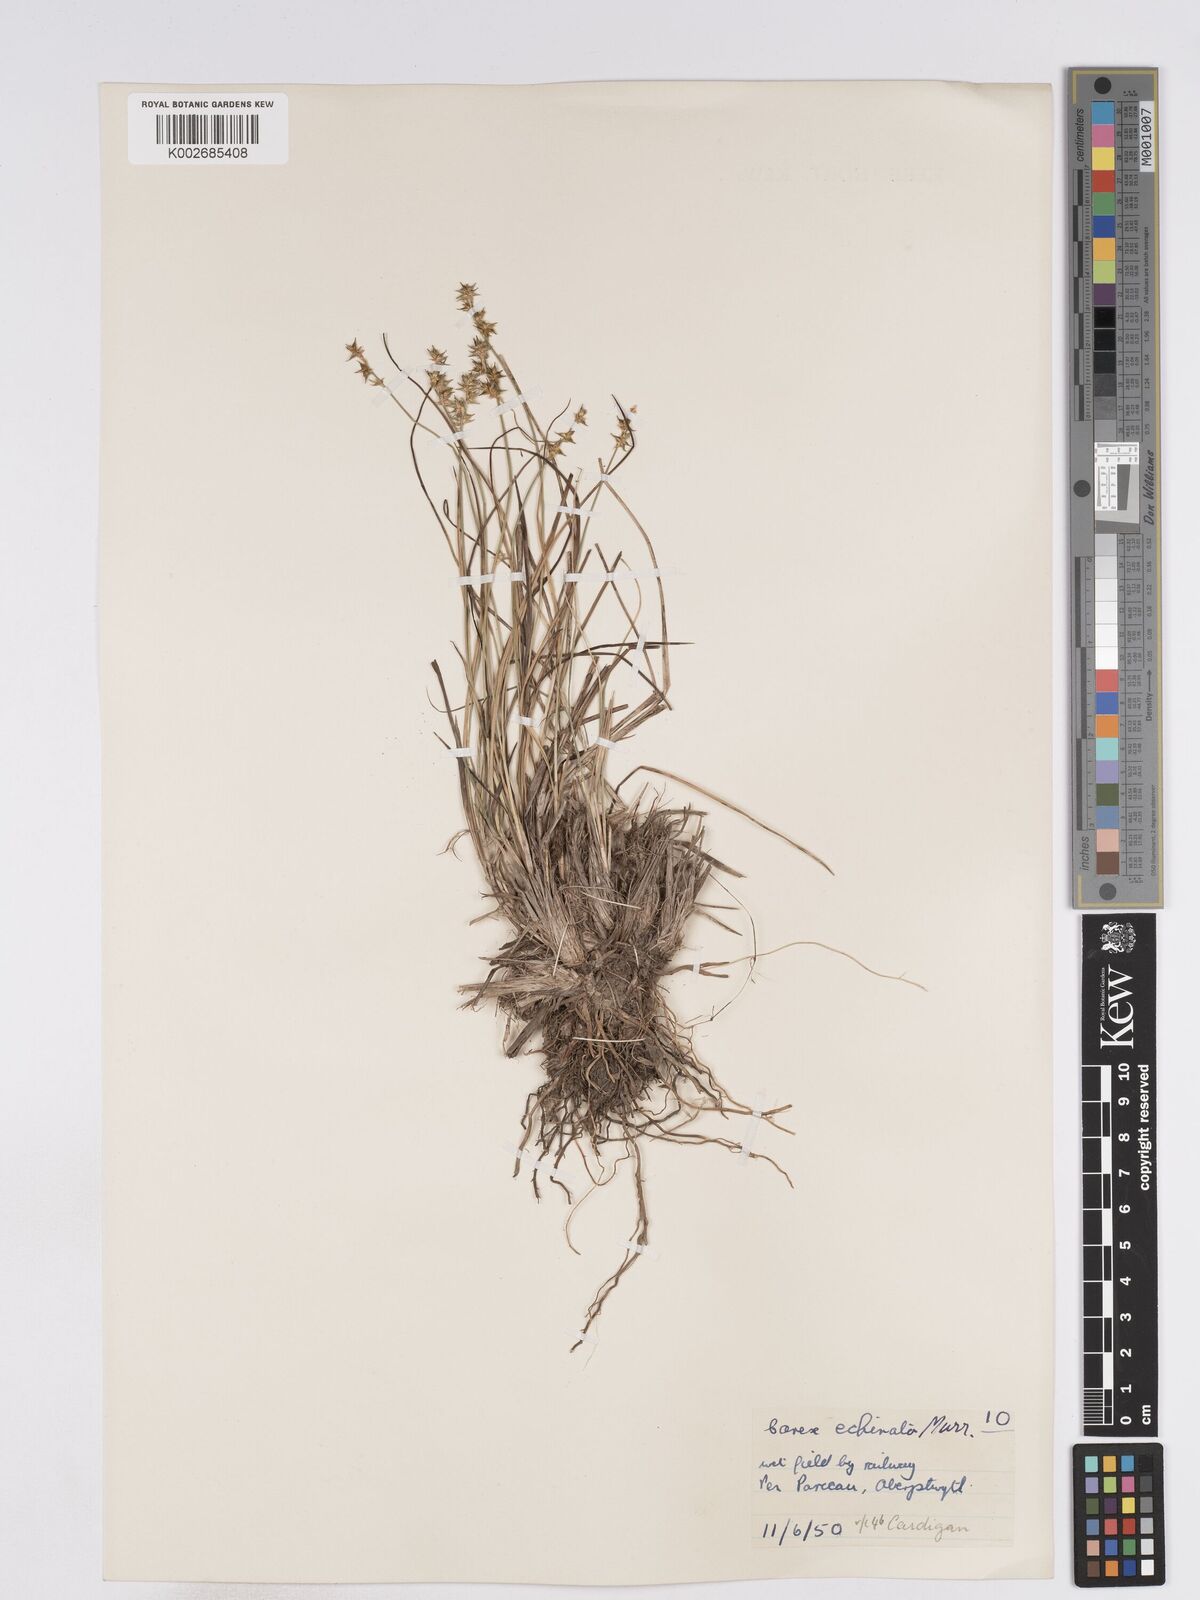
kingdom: Plantae
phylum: Tracheophyta
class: Liliopsida
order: Poales
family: Cyperaceae
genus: Carex
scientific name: Carex echinata
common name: Star sedge
